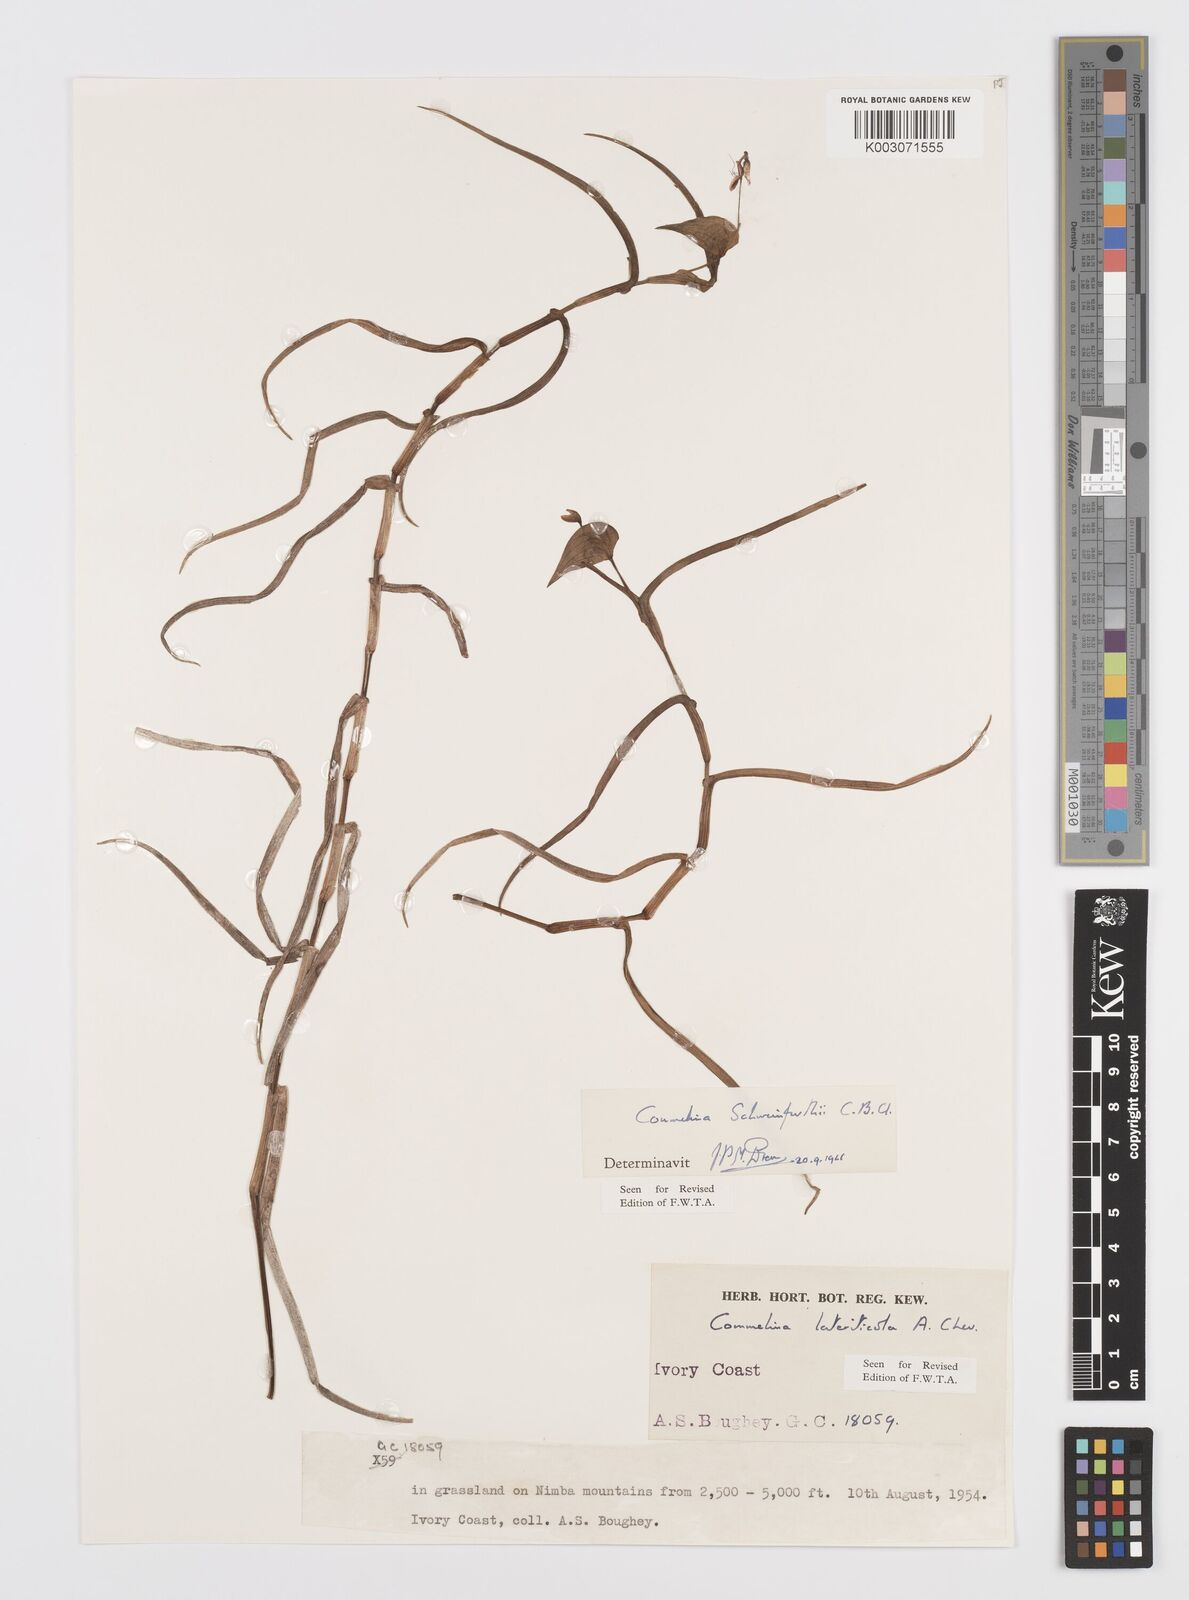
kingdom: Plantae
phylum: Tracheophyta
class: Liliopsida
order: Commelinales
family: Commelinaceae
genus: Commelina
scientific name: Commelina schweinfurthii
